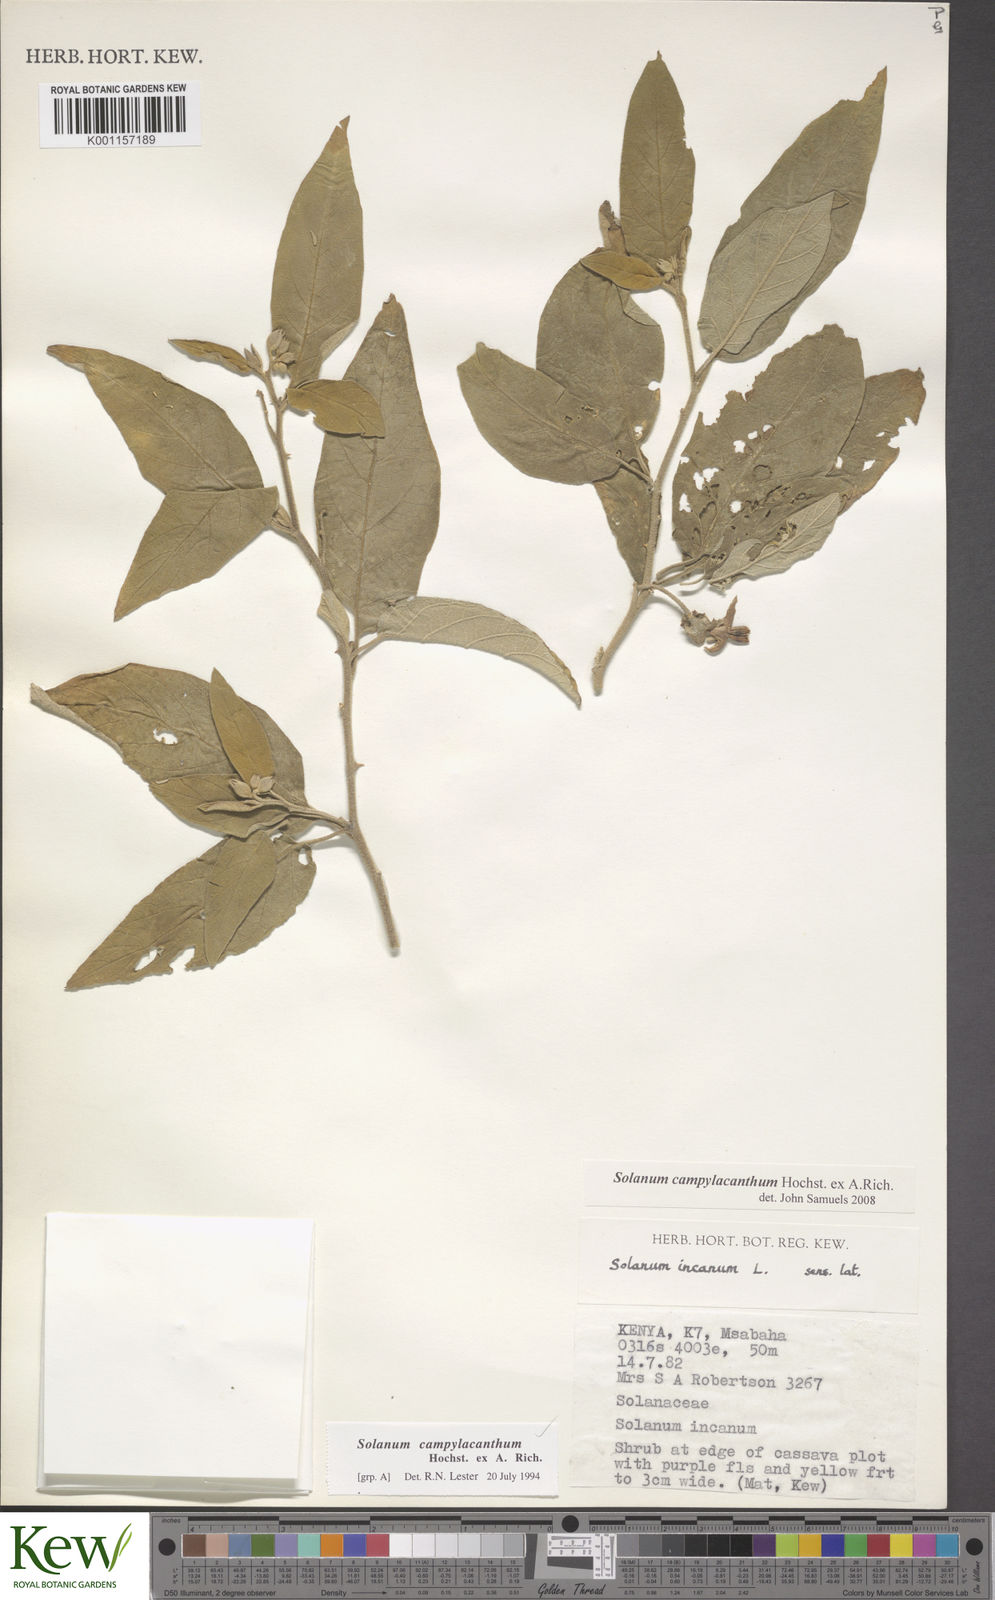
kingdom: Plantae
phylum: Tracheophyta
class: Magnoliopsida
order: Solanales
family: Solanaceae
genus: Solanum
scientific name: Solanum campylacanthum
